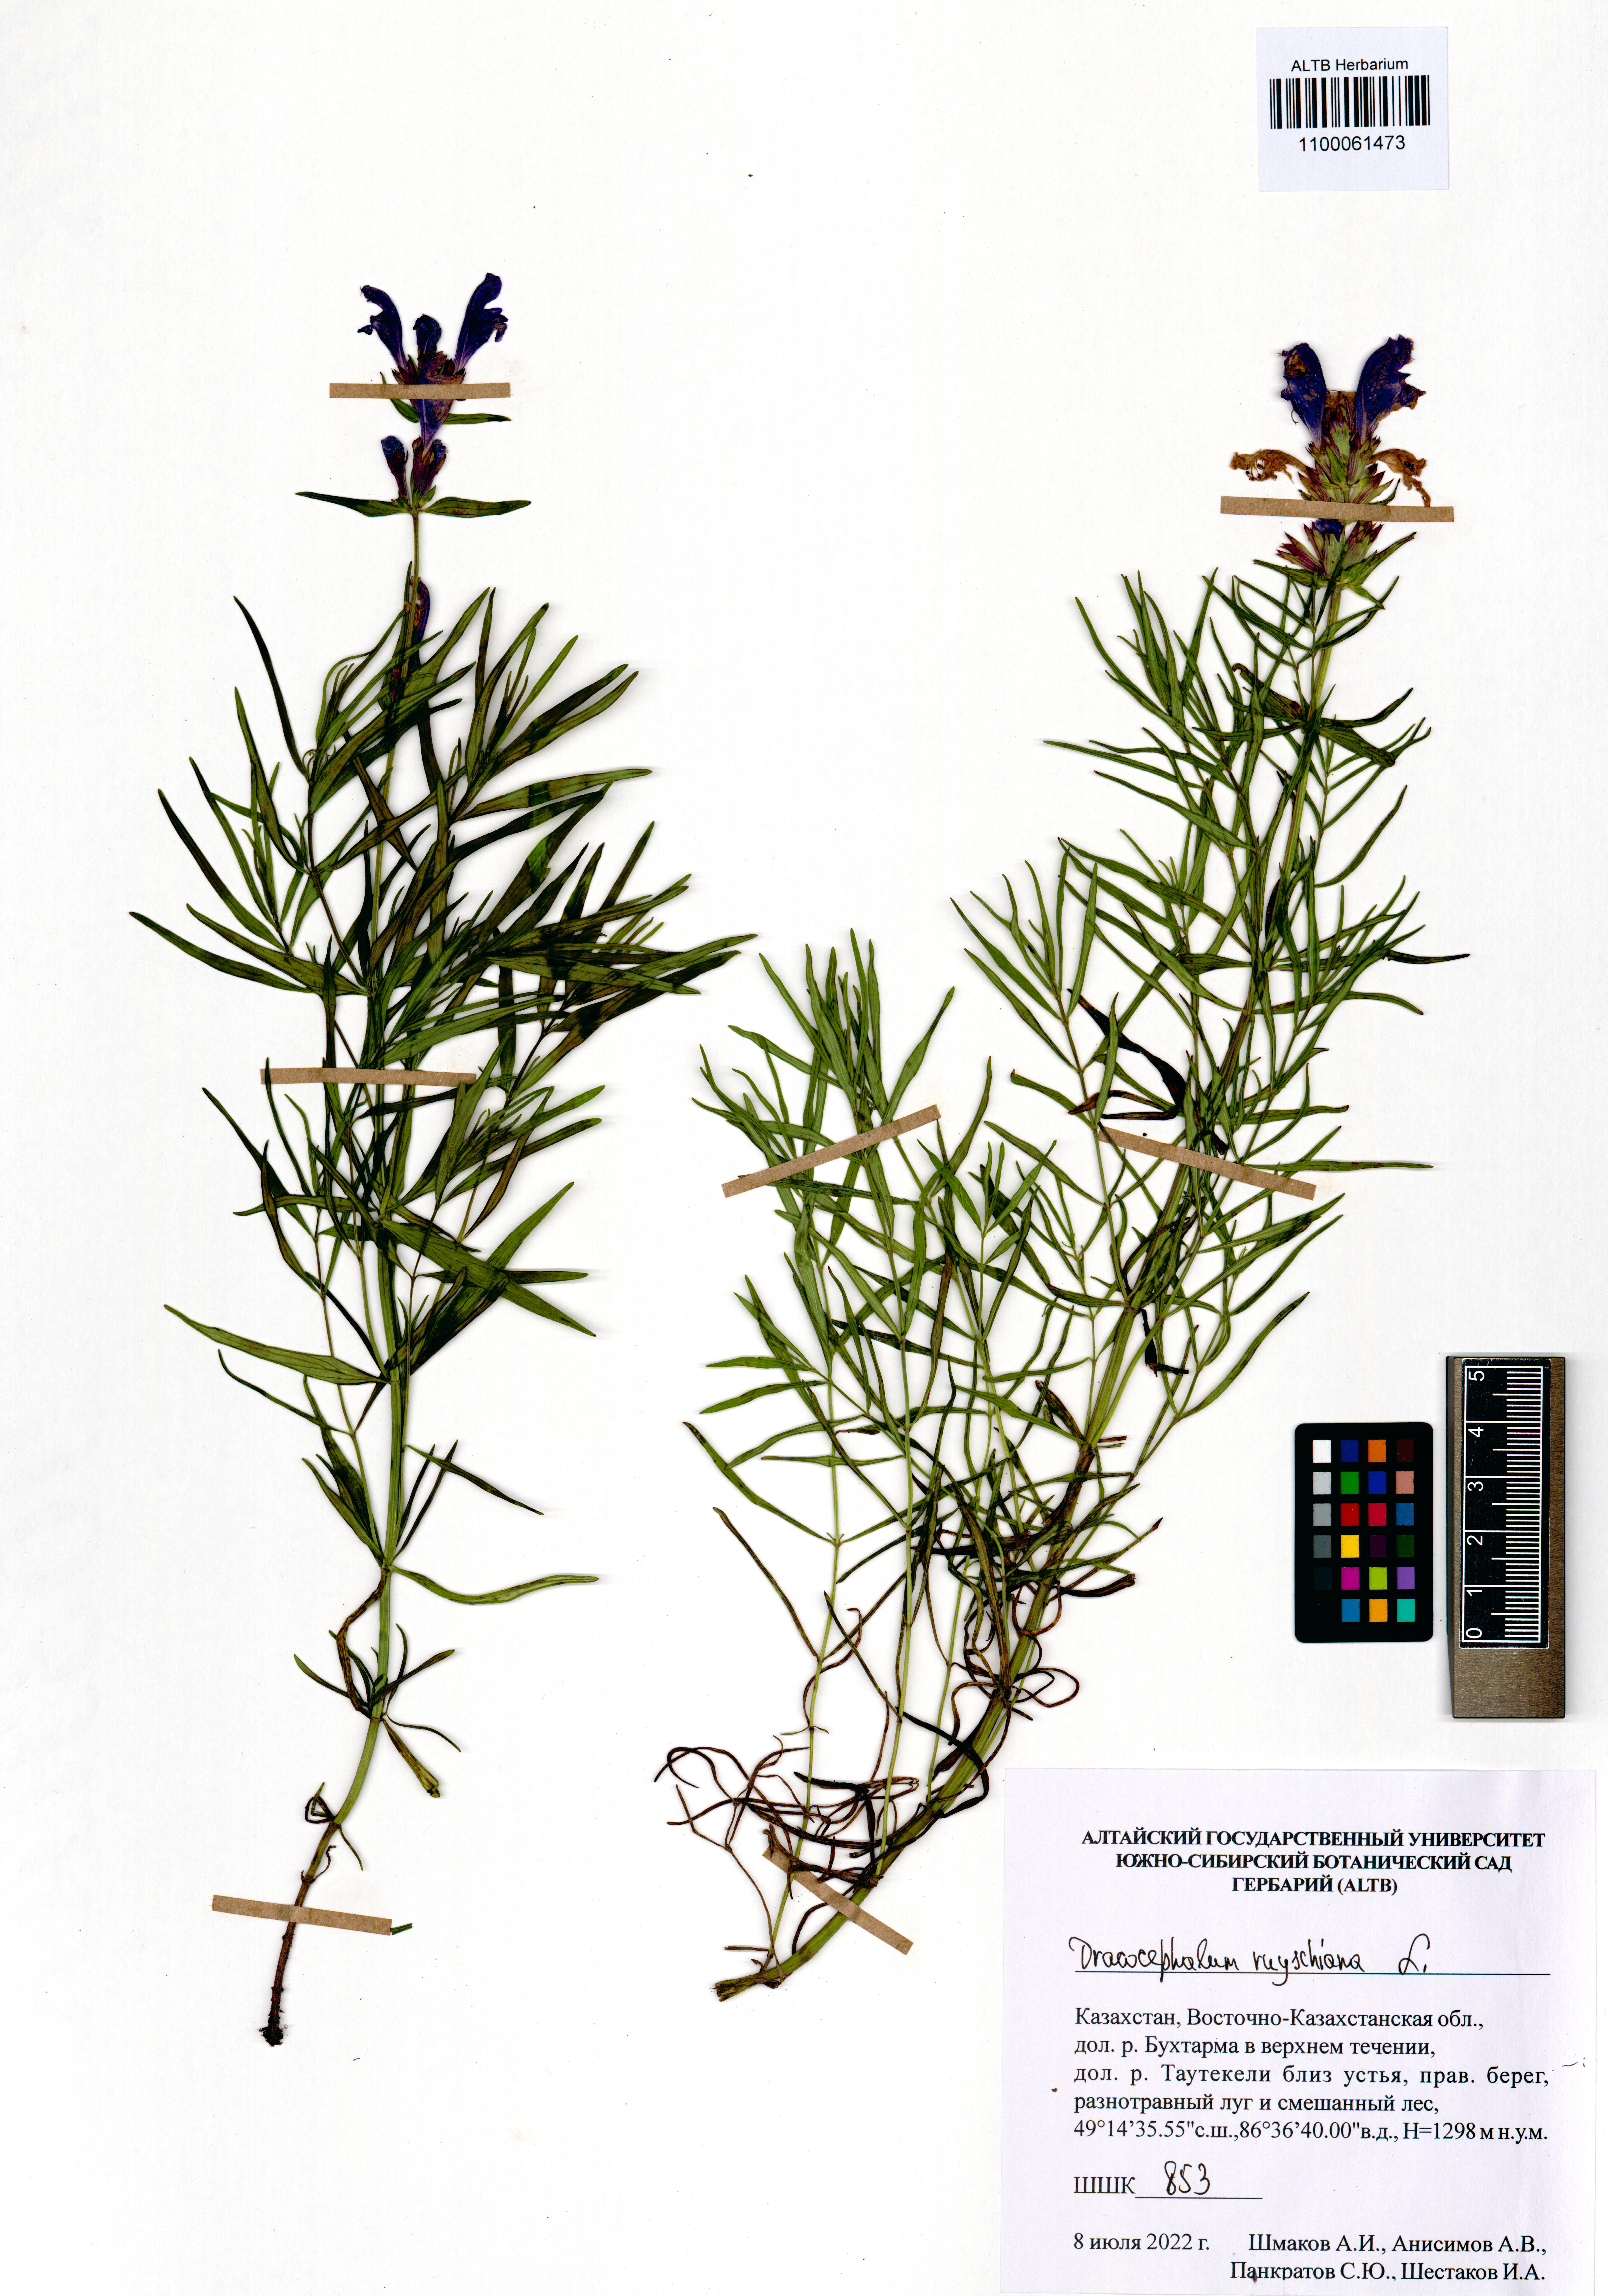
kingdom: Plantae
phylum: Tracheophyta
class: Magnoliopsida
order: Lamiales
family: Lamiaceae
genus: Dracocephalum
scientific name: Dracocephalum ruyschiana
